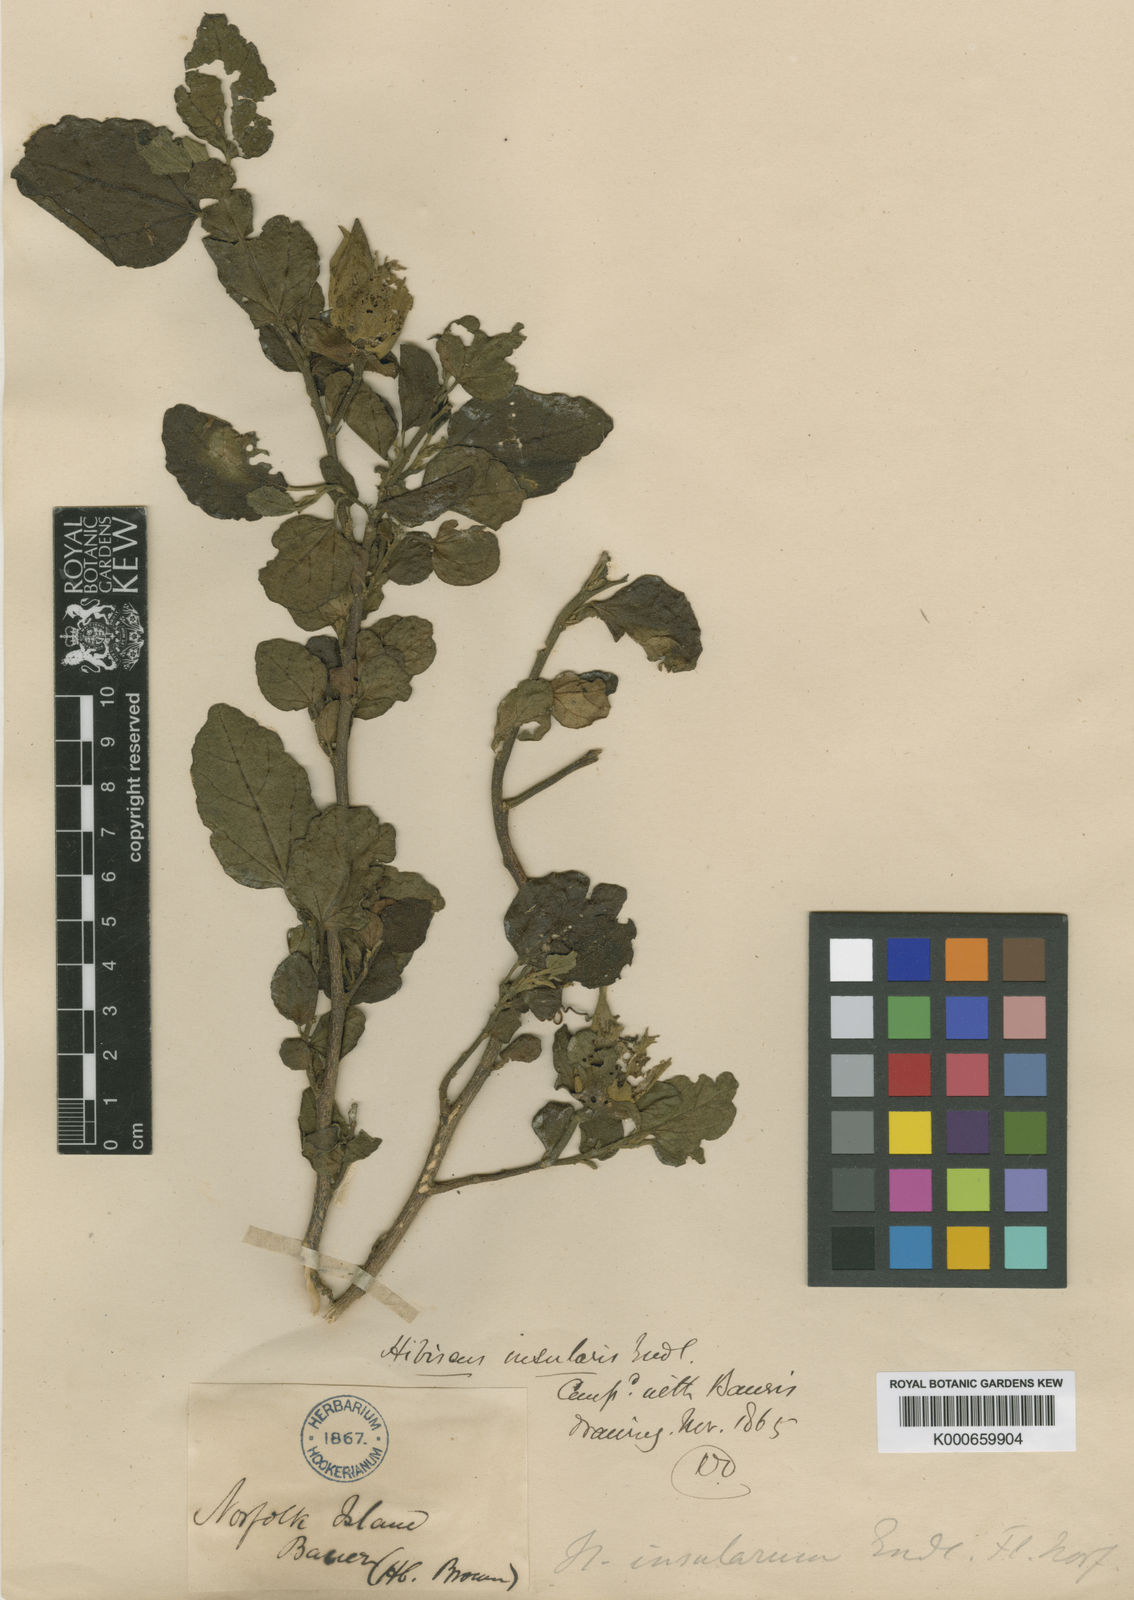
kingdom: Plantae
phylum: Tracheophyta
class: Magnoliopsida
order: Malvales
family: Malvaceae
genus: Hibiscus
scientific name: Hibiscus insularis
